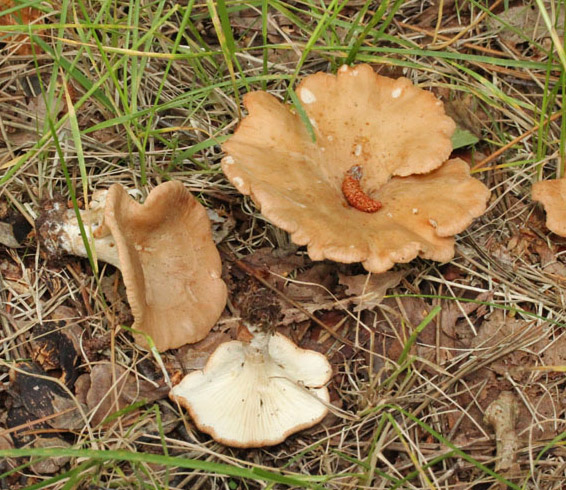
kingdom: Fungi
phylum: Basidiomycota
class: Agaricomycetes
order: Agaricales
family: Tricholomataceae
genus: Clitocybe
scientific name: Clitocybe costata
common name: brunstokket tragthat
